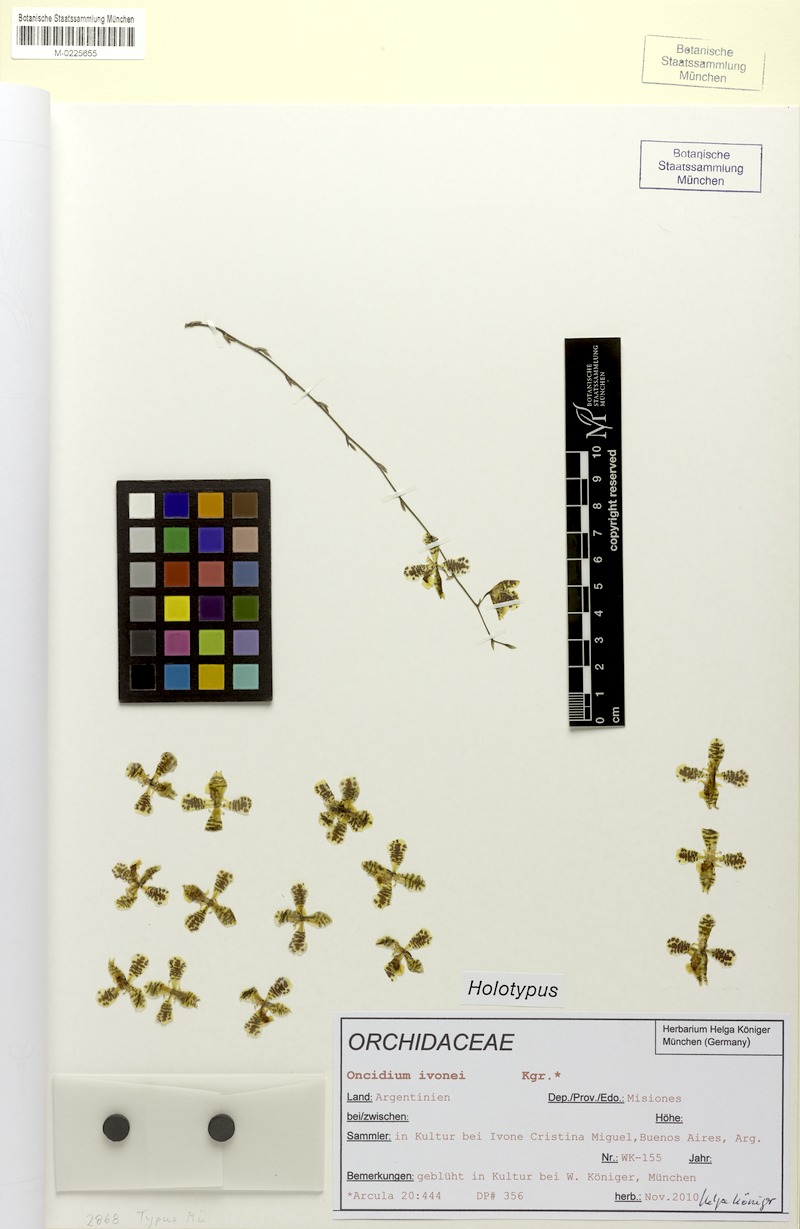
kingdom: Plantae
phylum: Tracheophyta
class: Liliopsida
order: Asparagales
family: Orchidaceae
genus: Oncidium
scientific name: Oncidium ivoneae
